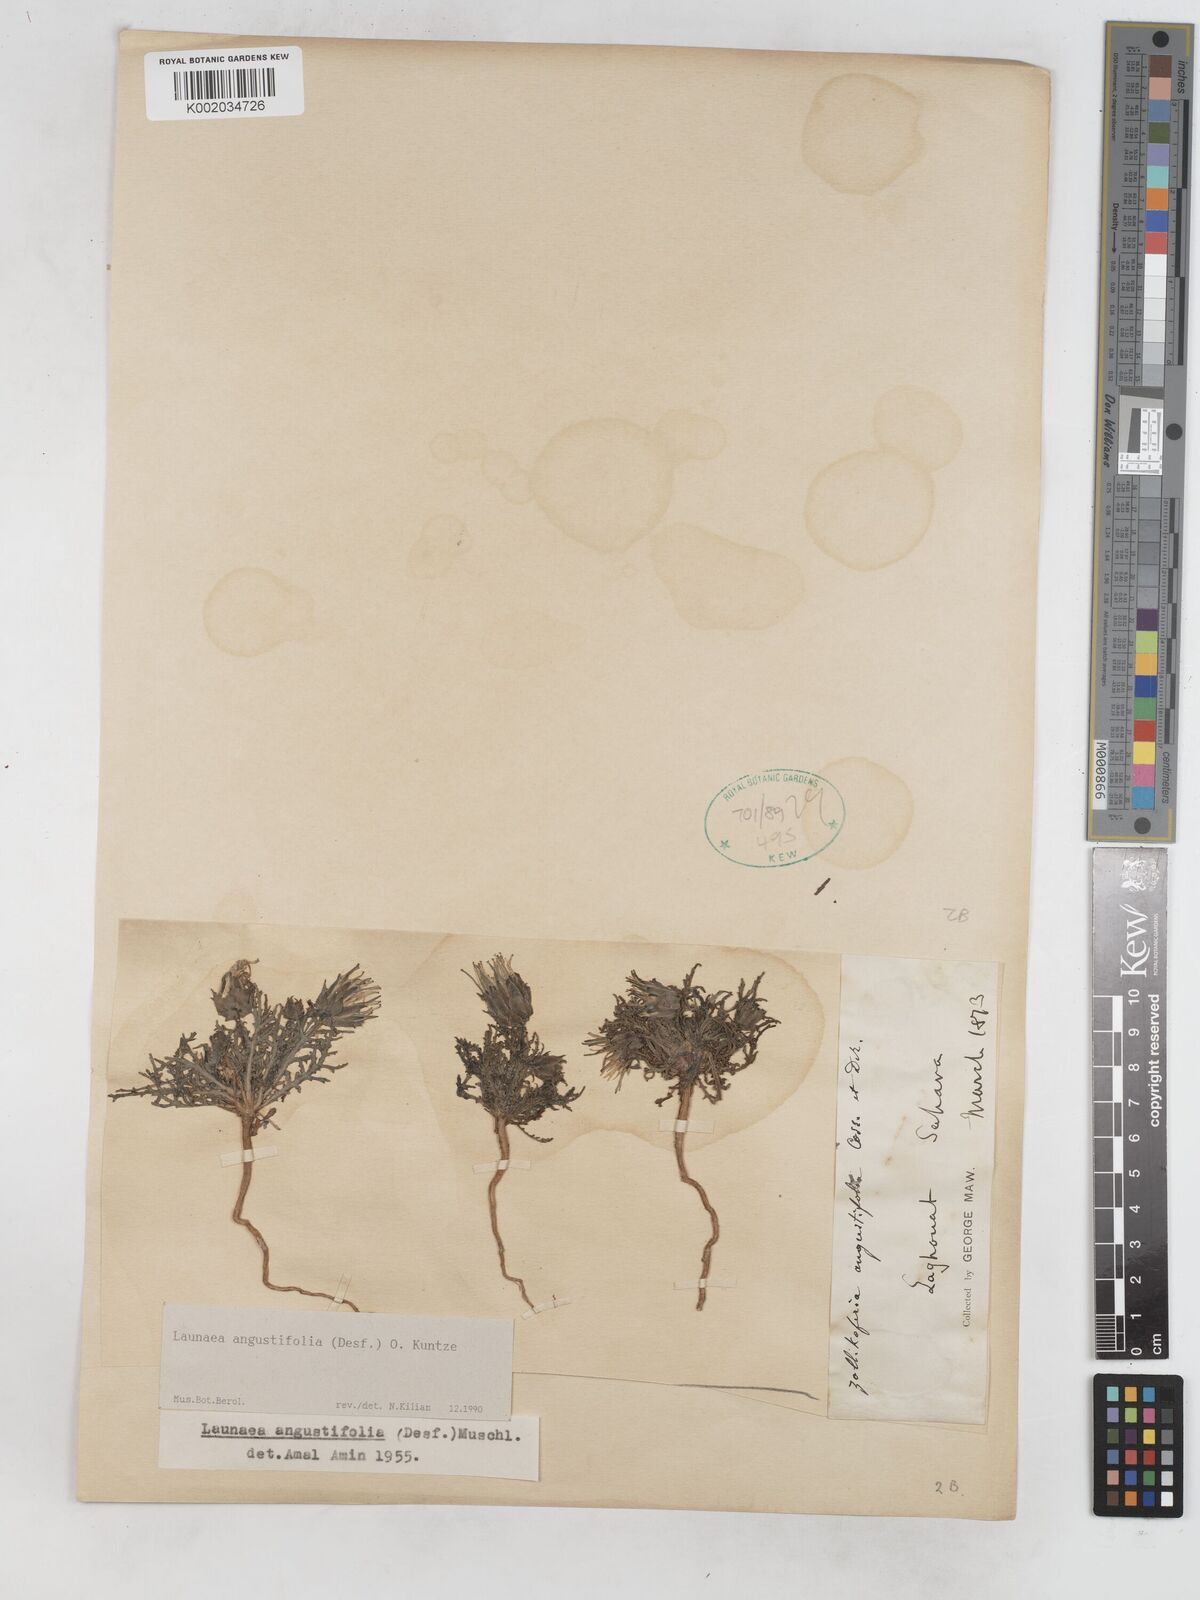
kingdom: Plantae
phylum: Tracheophyta
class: Magnoliopsida
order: Asterales
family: Asteraceae
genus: Launaea
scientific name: Launaea angustifolia
